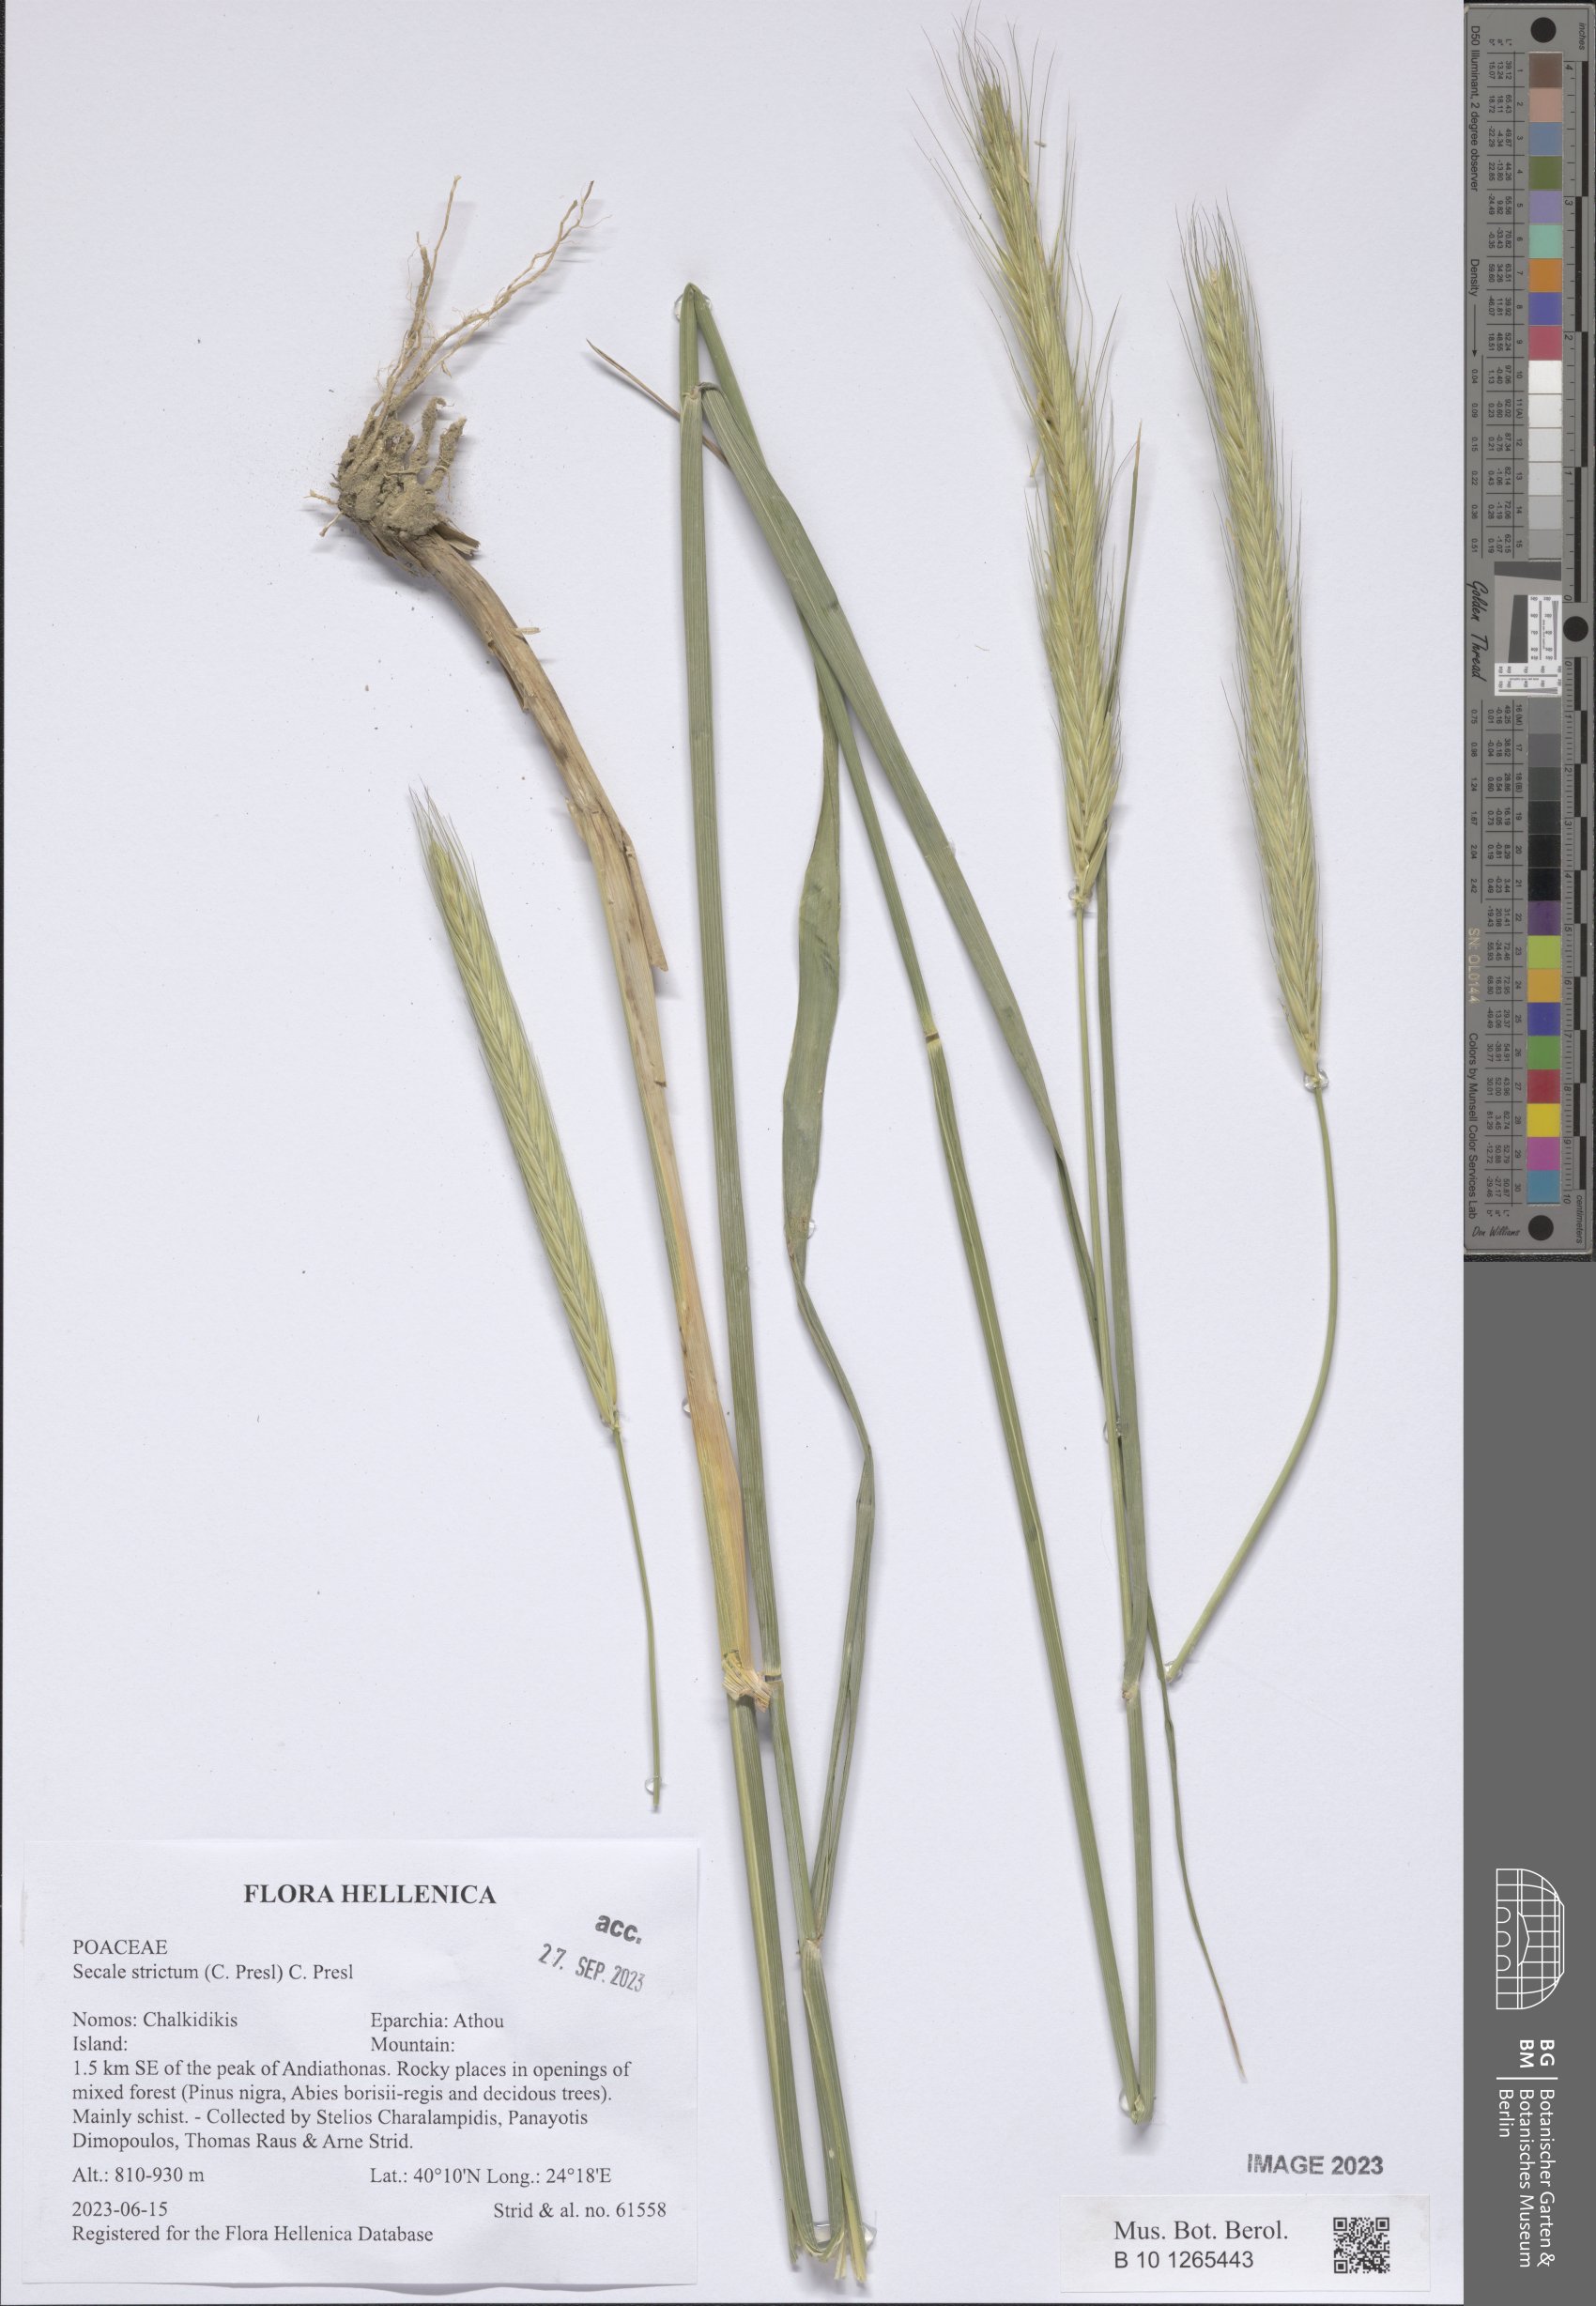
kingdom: Plantae
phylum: Tracheophyta
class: Liliopsida
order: Poales
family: Poaceae
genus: Secale
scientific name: Secale strictum
